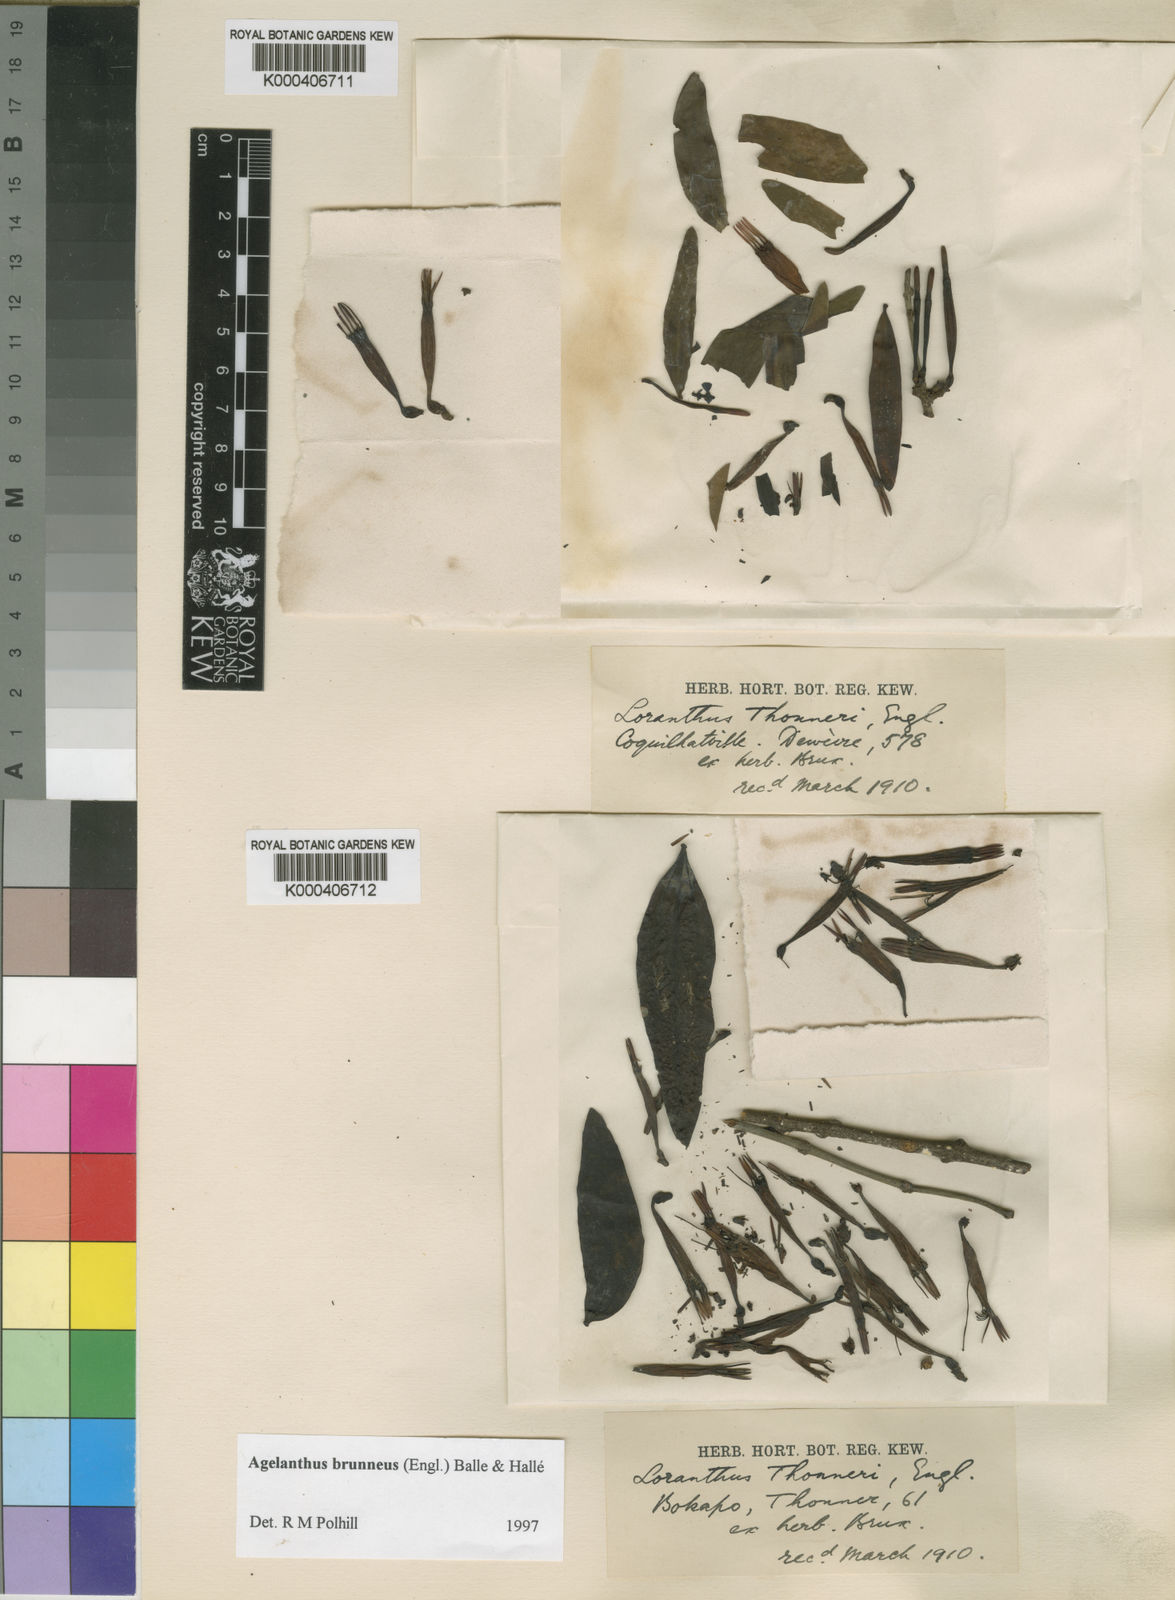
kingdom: Plantae
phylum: Tracheophyta
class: Magnoliopsida
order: Santalales
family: Loranthaceae
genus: Agelanthus
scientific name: Agelanthus
